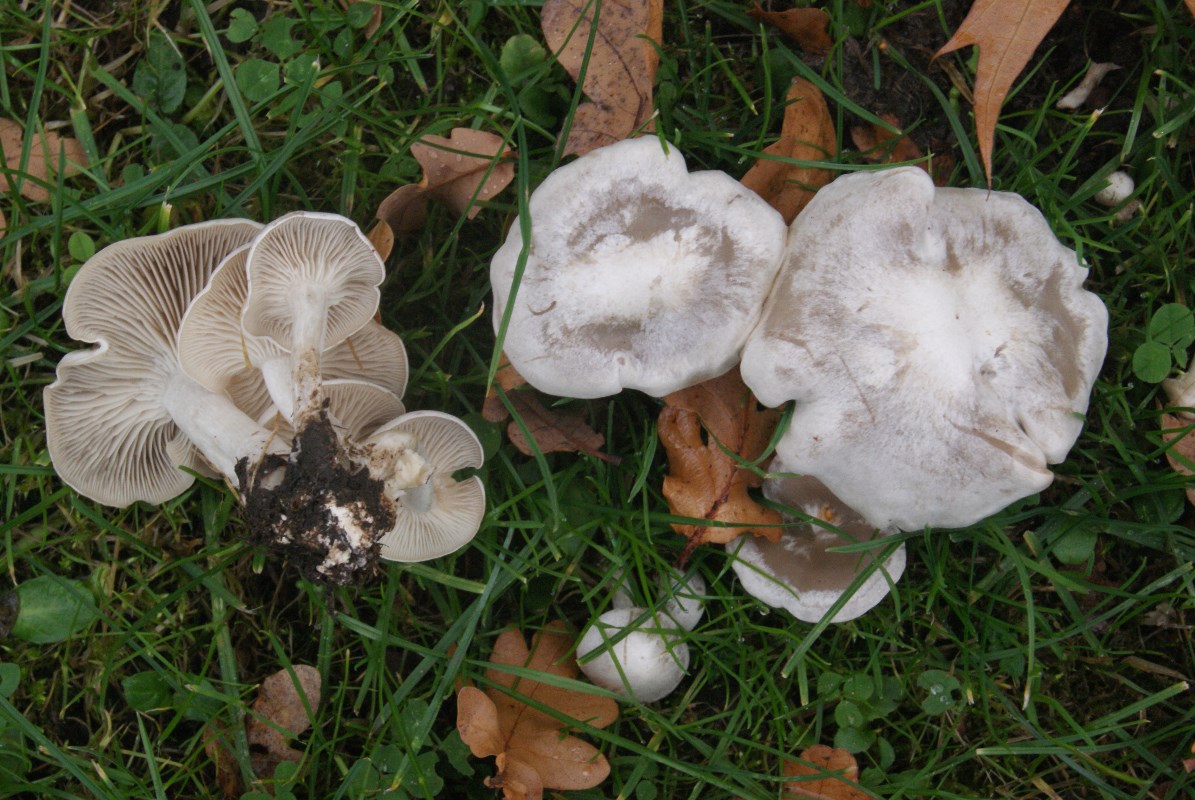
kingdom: Fungi
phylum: Basidiomycota
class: Agaricomycetes
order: Agaricales
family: Tricholomataceae
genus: Leucocybe
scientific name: Leucocybe connata
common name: knippe-tragthat
